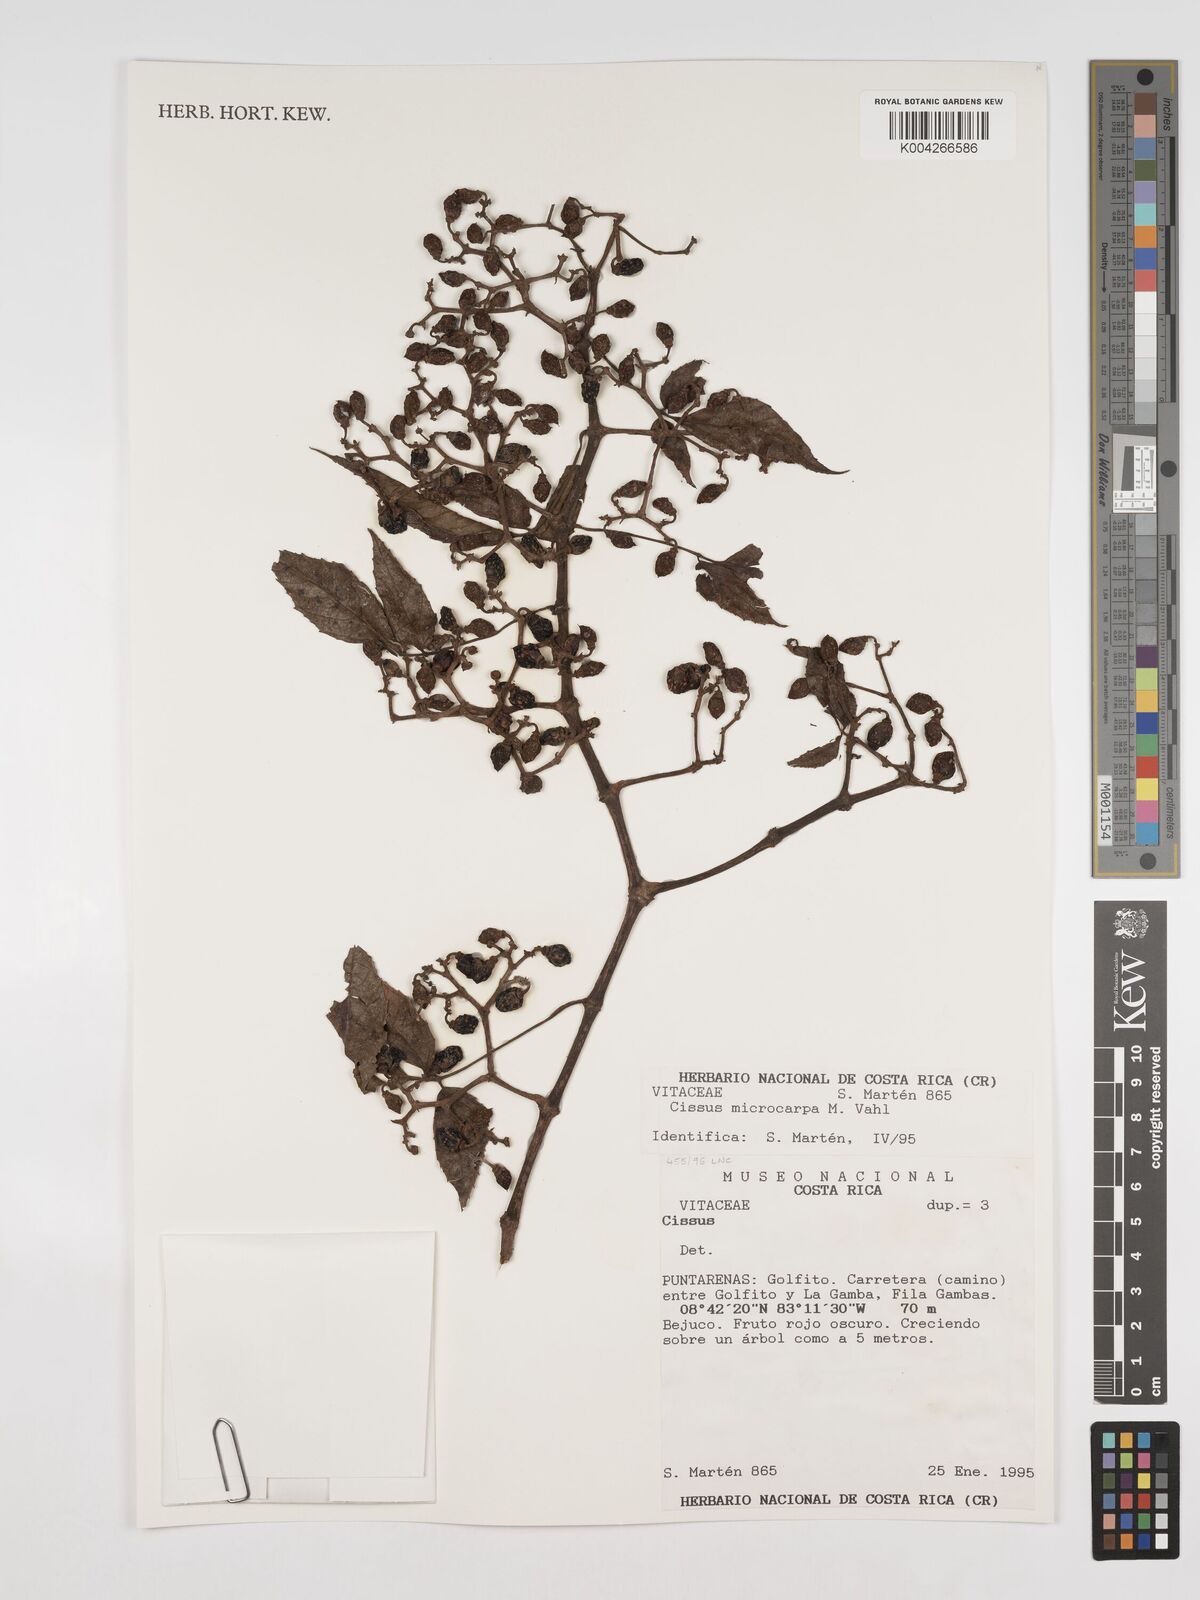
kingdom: Plantae
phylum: Tracheophyta
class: Magnoliopsida
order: Vitales
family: Vitaceae
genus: Cissus
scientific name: Cissus microcarpa
